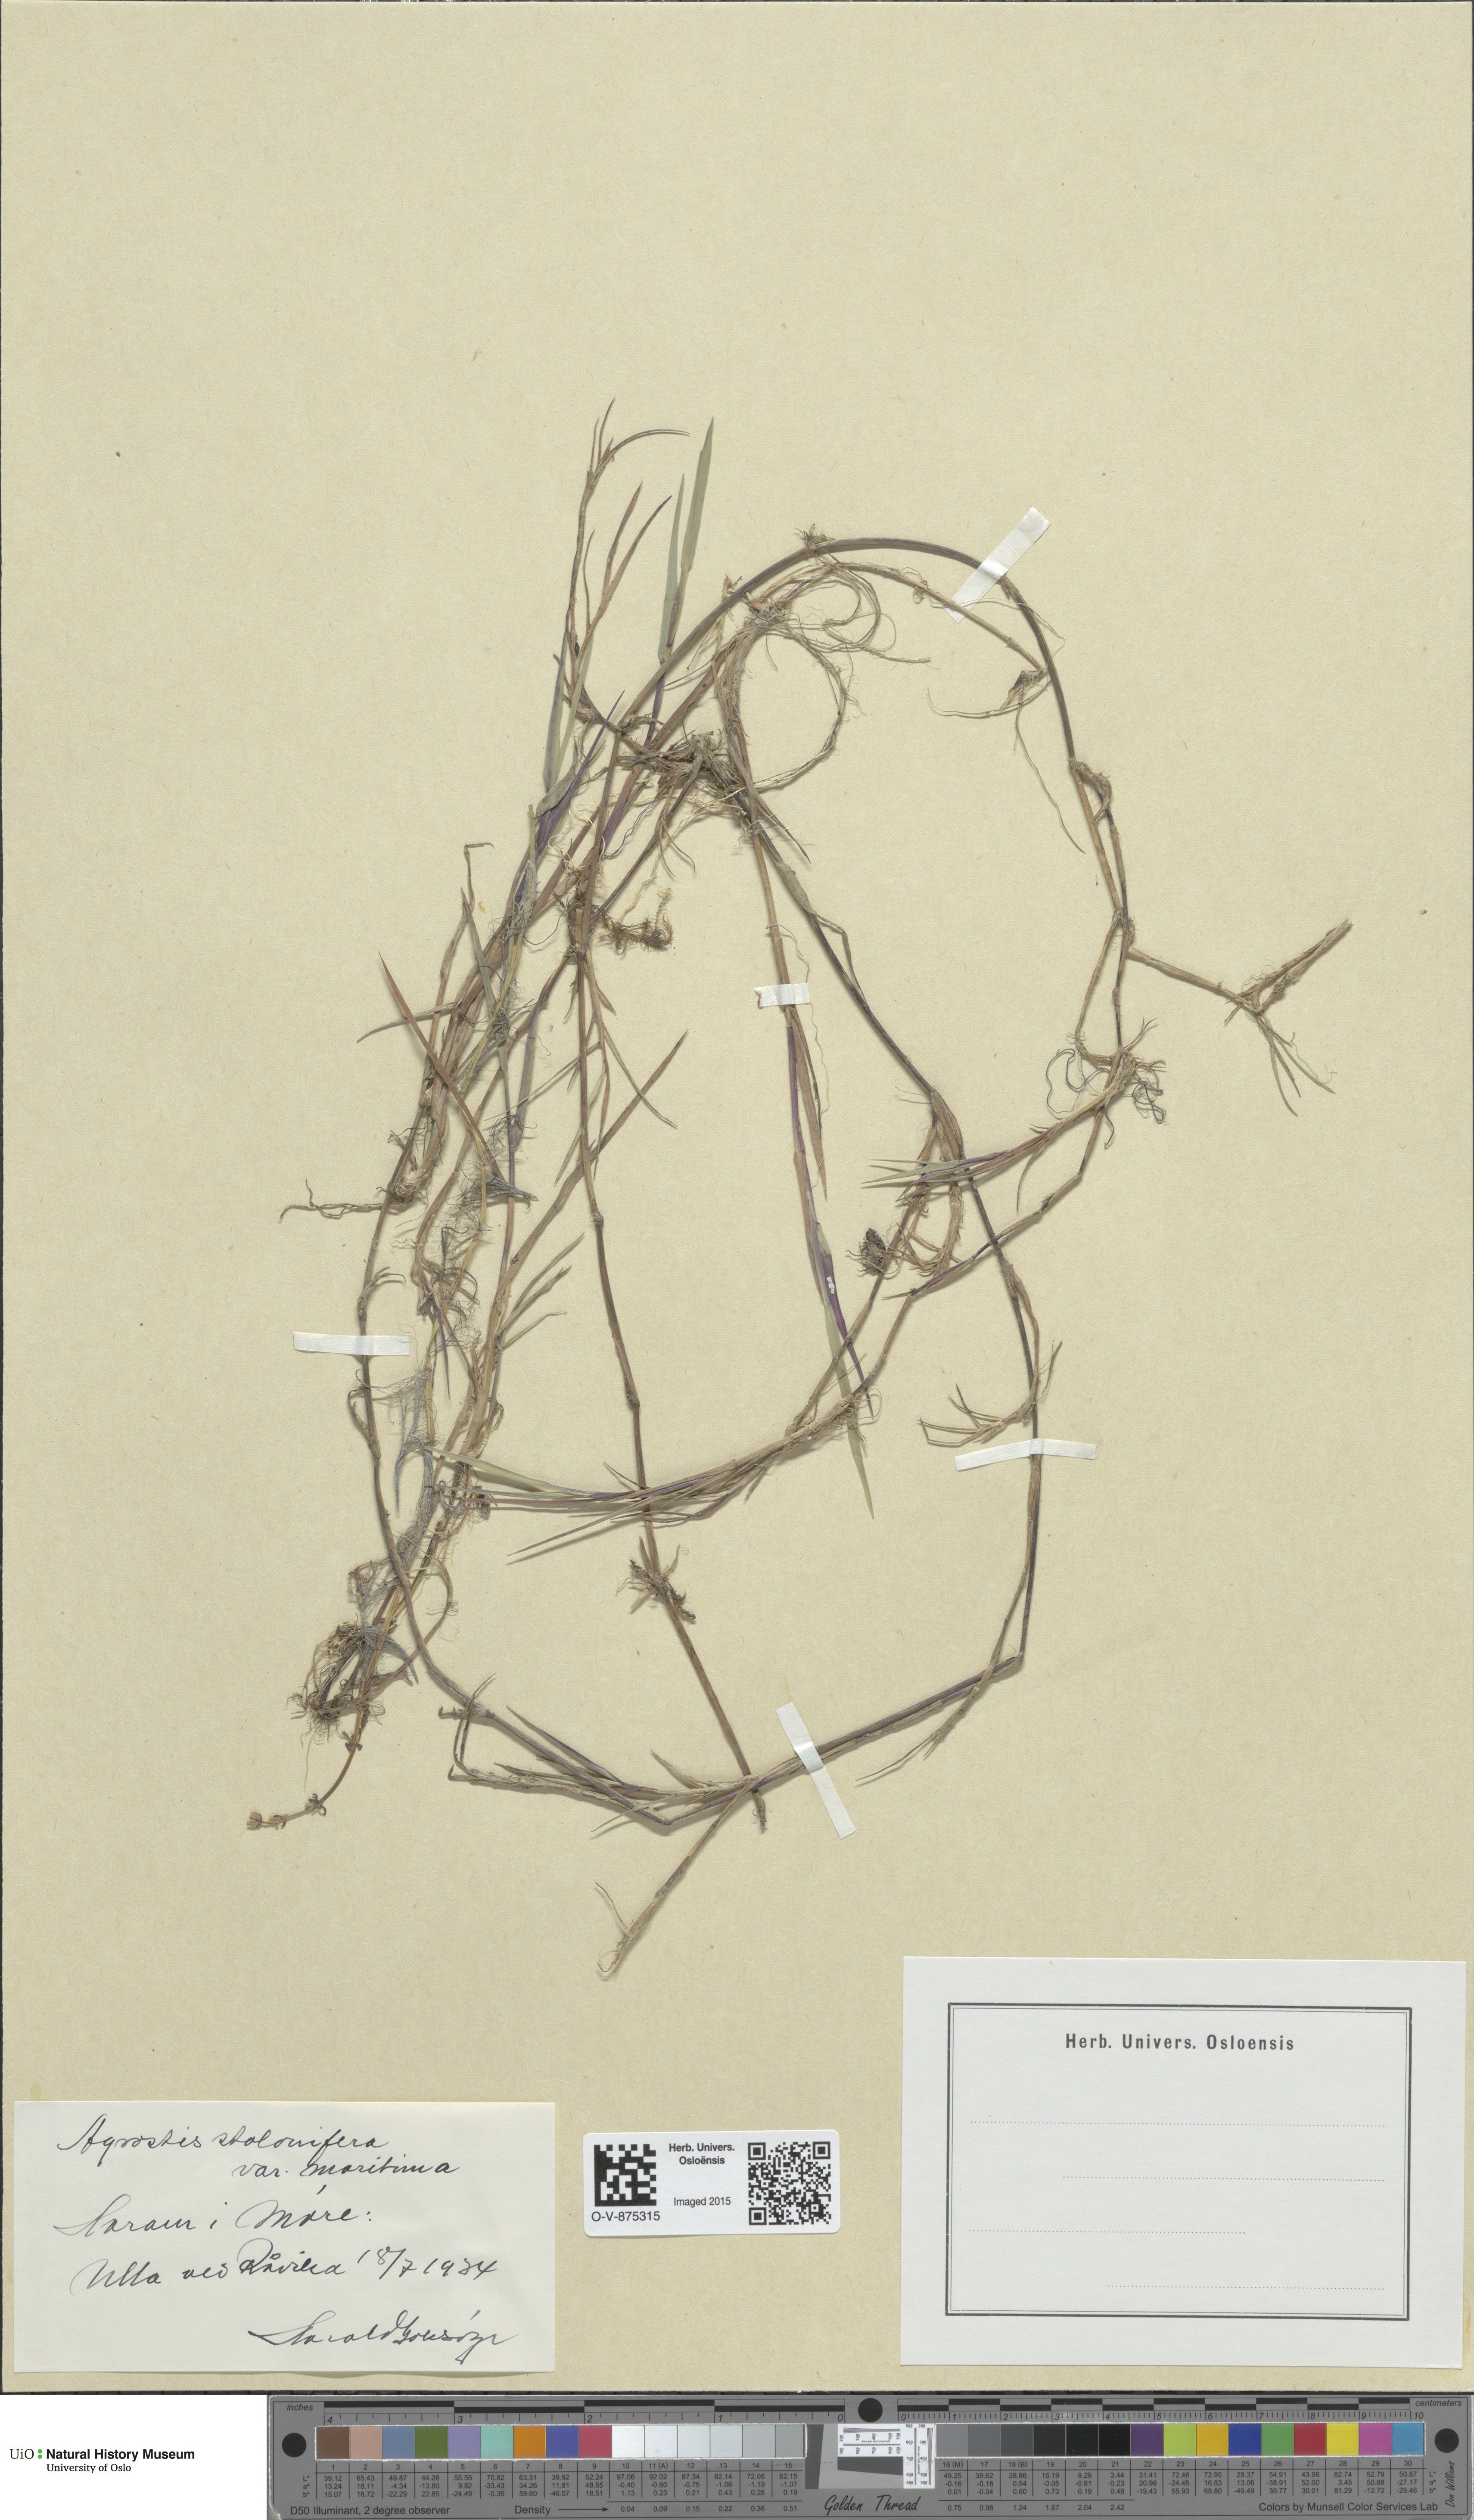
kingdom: Plantae
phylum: Tracheophyta
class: Liliopsida
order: Poales
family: Poaceae
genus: Agrostis
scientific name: Agrostis stolonifera
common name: Creeping bentgrass
